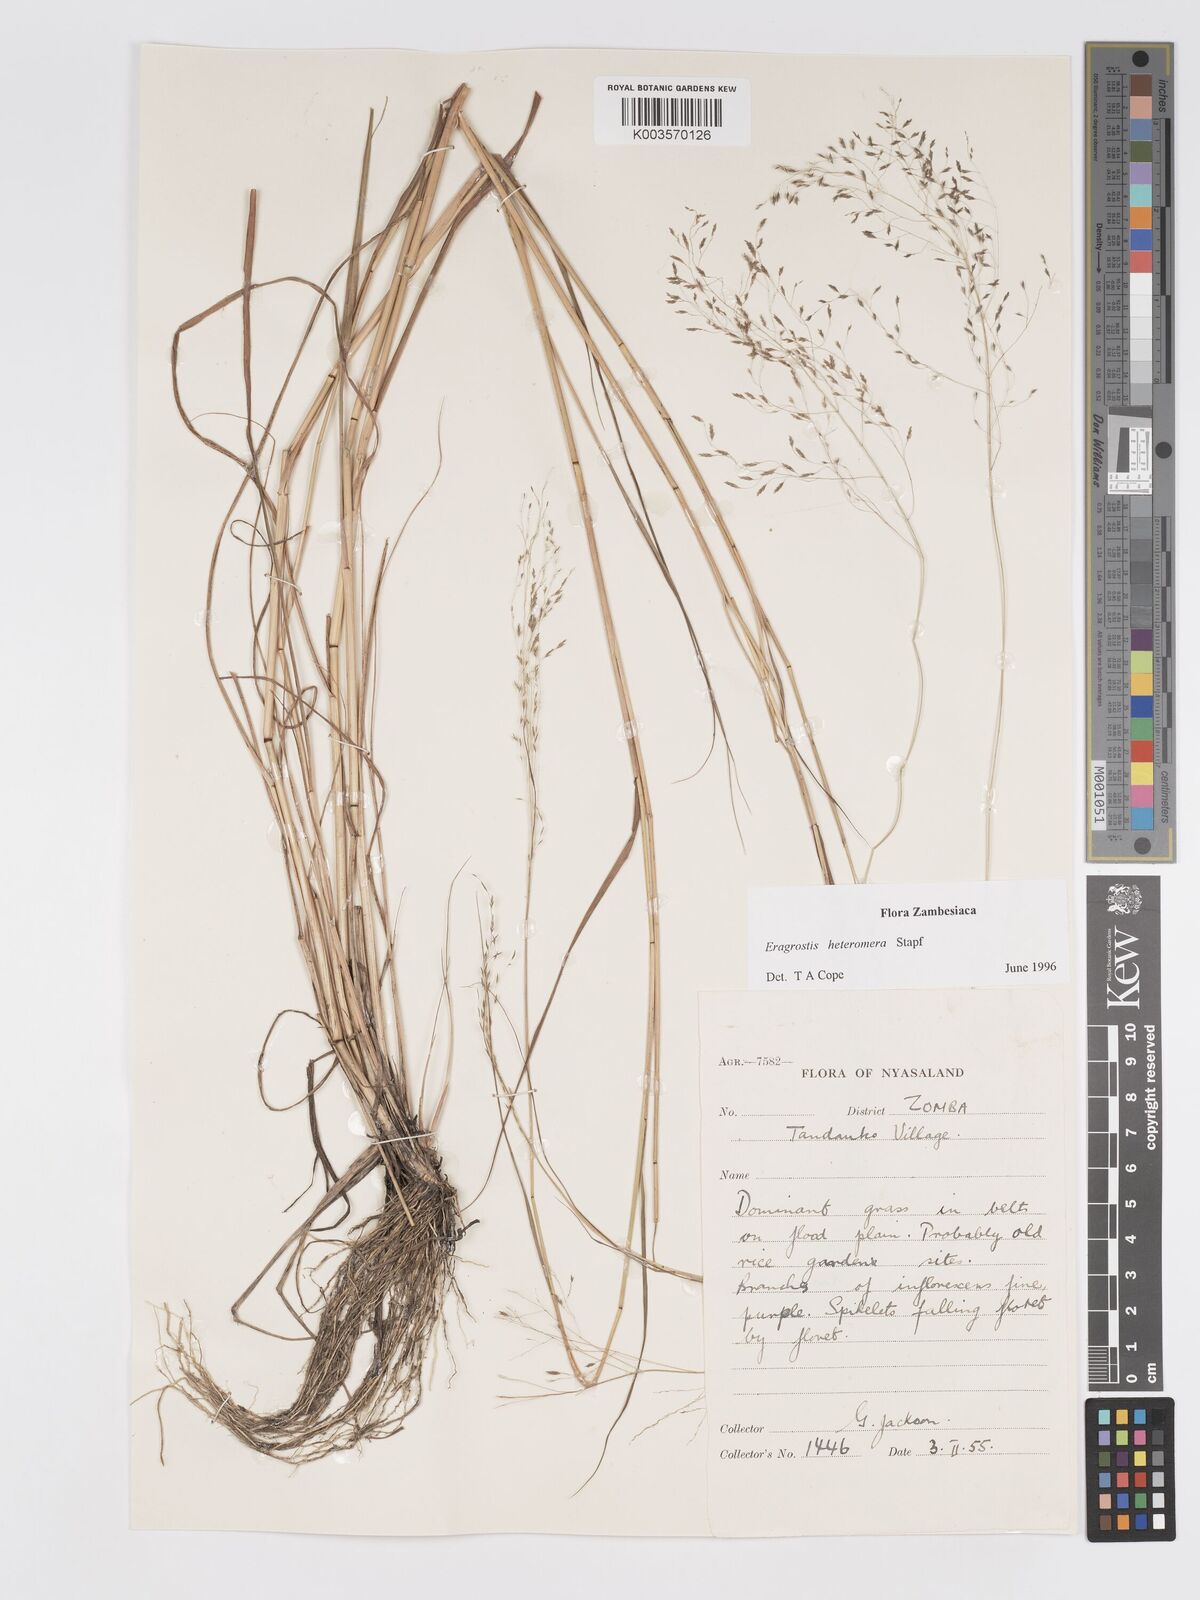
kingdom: Plantae
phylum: Tracheophyta
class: Liliopsida
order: Poales
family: Poaceae
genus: Eragrostis
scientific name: Eragrostis heteromera
